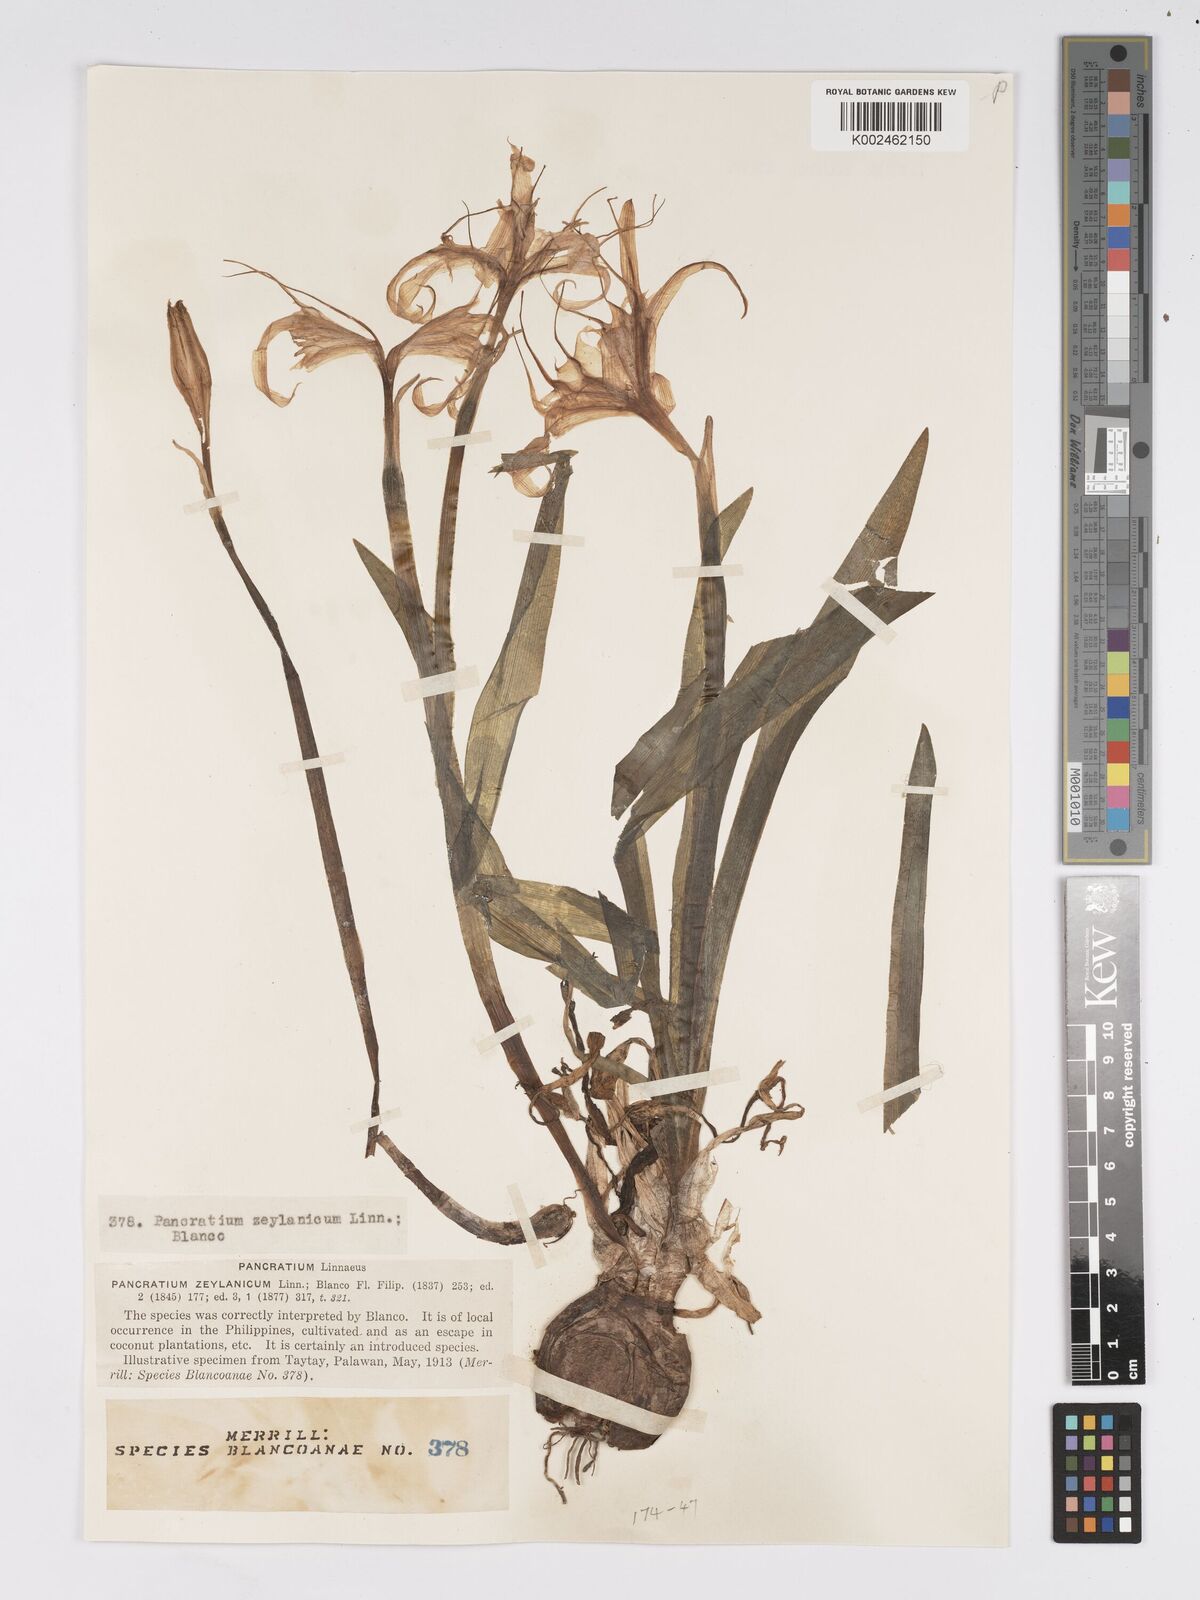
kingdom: Plantae
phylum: Tracheophyta
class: Liliopsida
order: Asparagales
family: Amaryllidaceae
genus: Pancratium
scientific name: Pancratium zeylanicum
